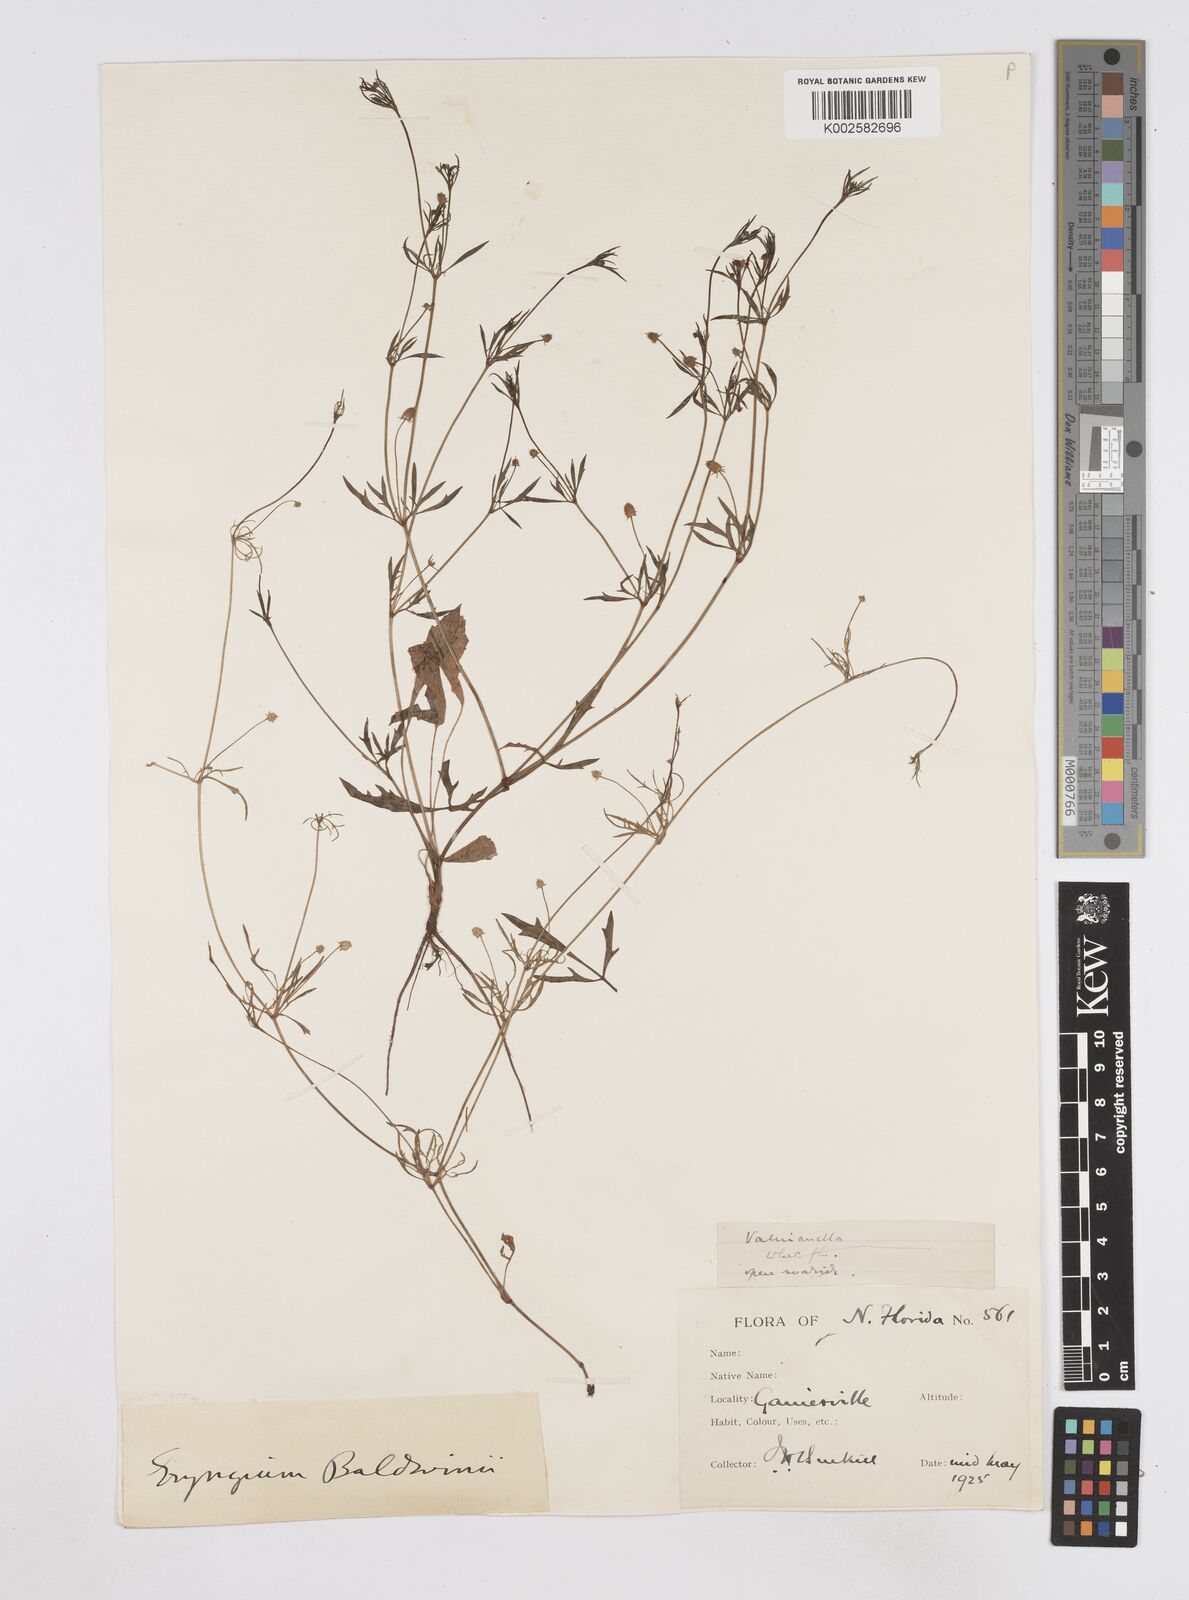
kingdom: Plantae
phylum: Tracheophyta
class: Magnoliopsida
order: Apiales
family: Apiaceae
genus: Eryngium
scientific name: Eryngium baldwinii
